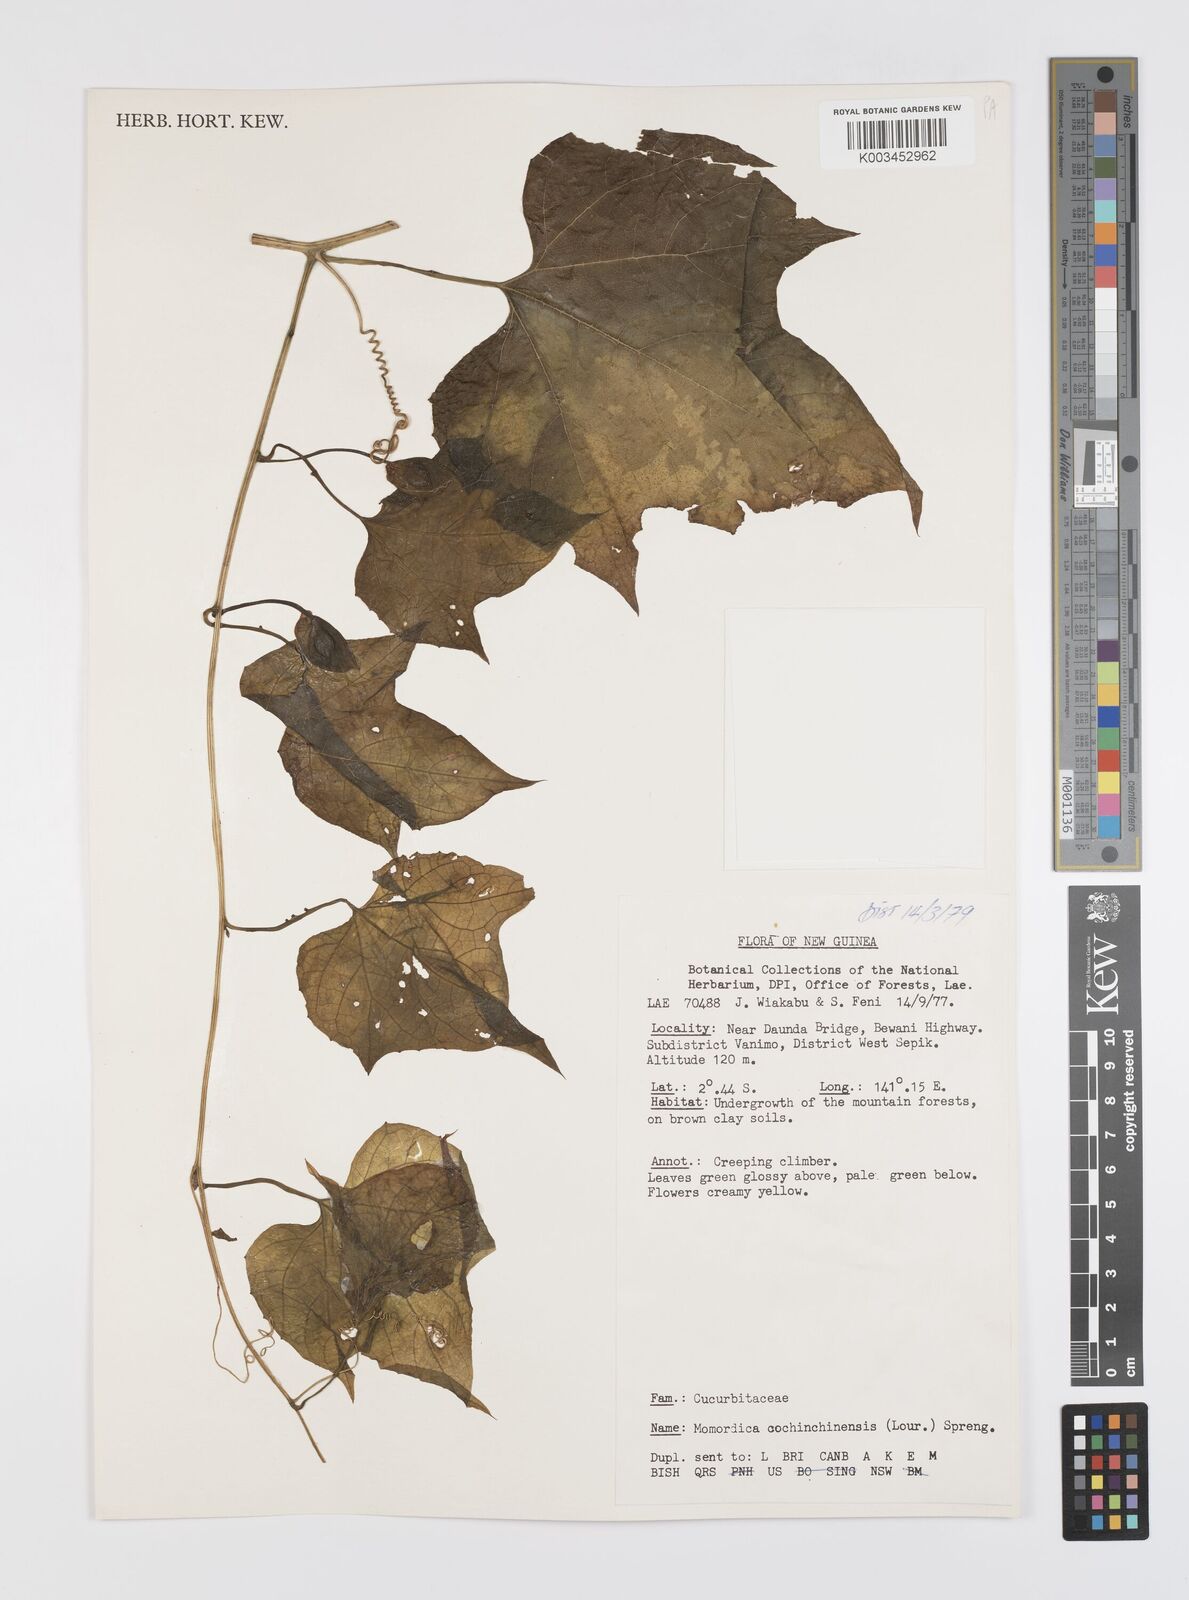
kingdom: Plantae
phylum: Tracheophyta
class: Magnoliopsida
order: Cucurbitales
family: Cucurbitaceae
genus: Momordica
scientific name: Momordica cochinchinensis
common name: Chinese bitter-cucumber
